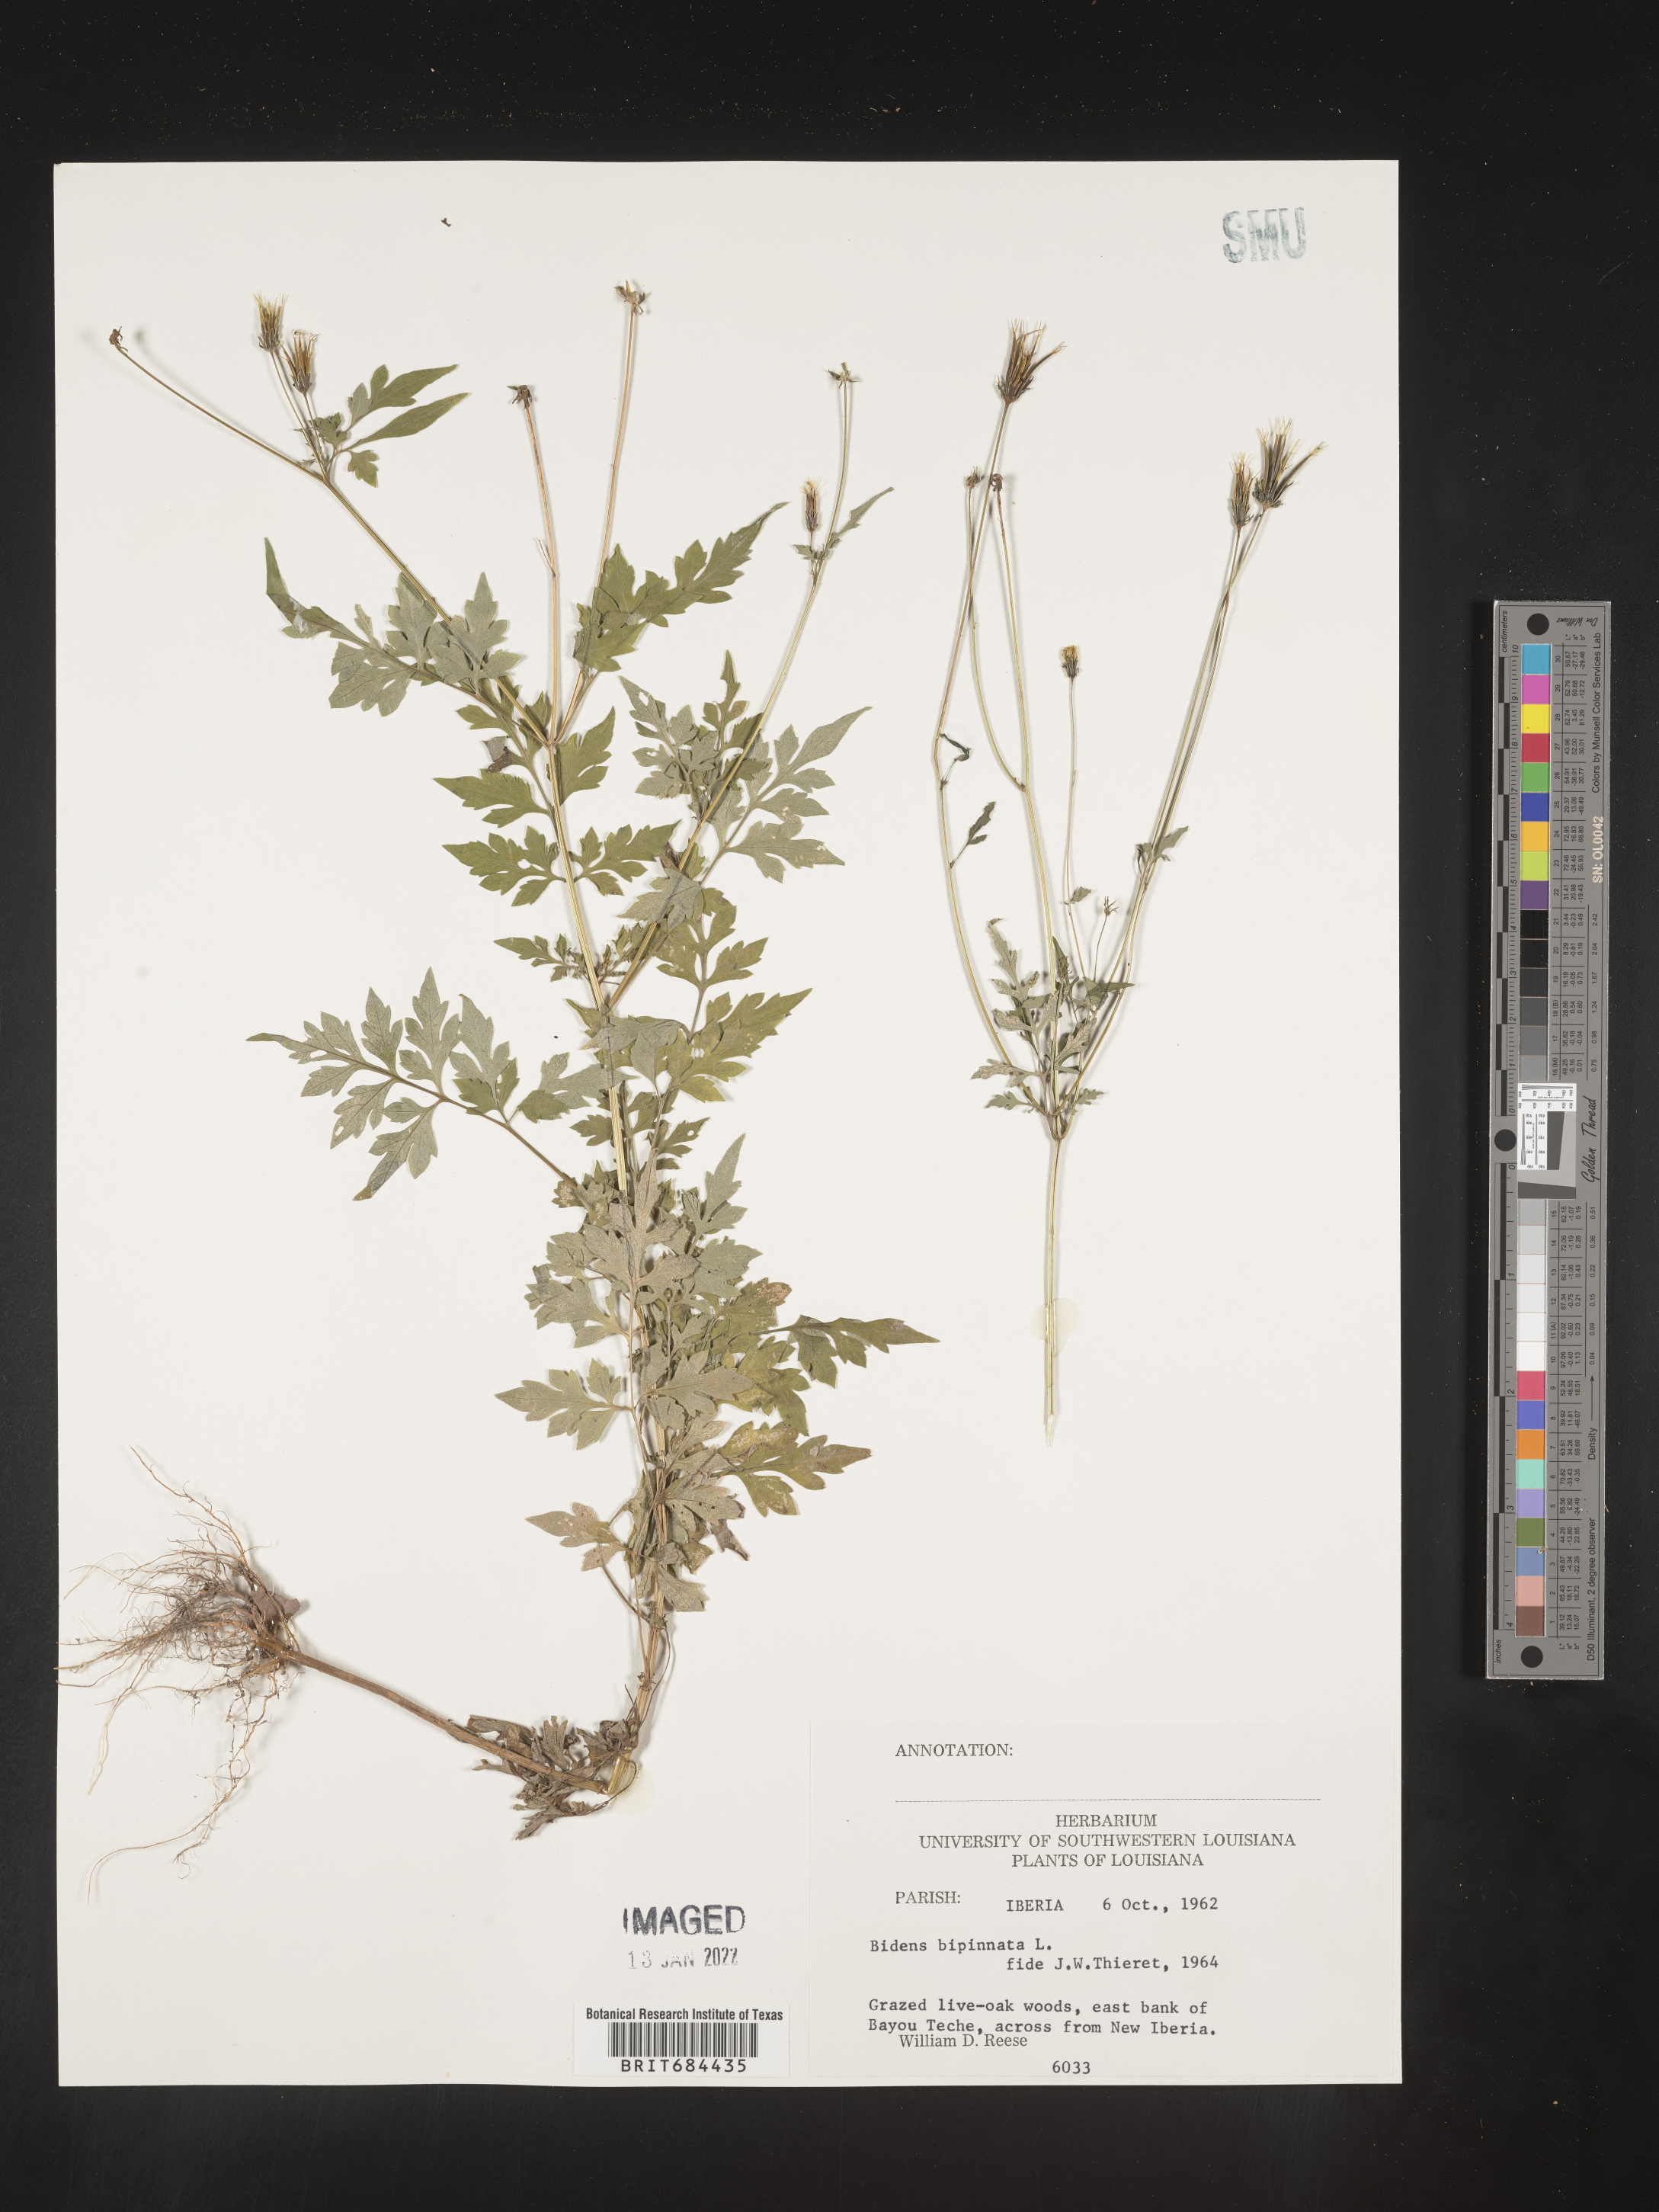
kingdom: Plantae
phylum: Tracheophyta
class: Magnoliopsida
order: Asterales
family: Asteraceae
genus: Bidens
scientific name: Bidens bipinnata
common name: Spanish-needles
